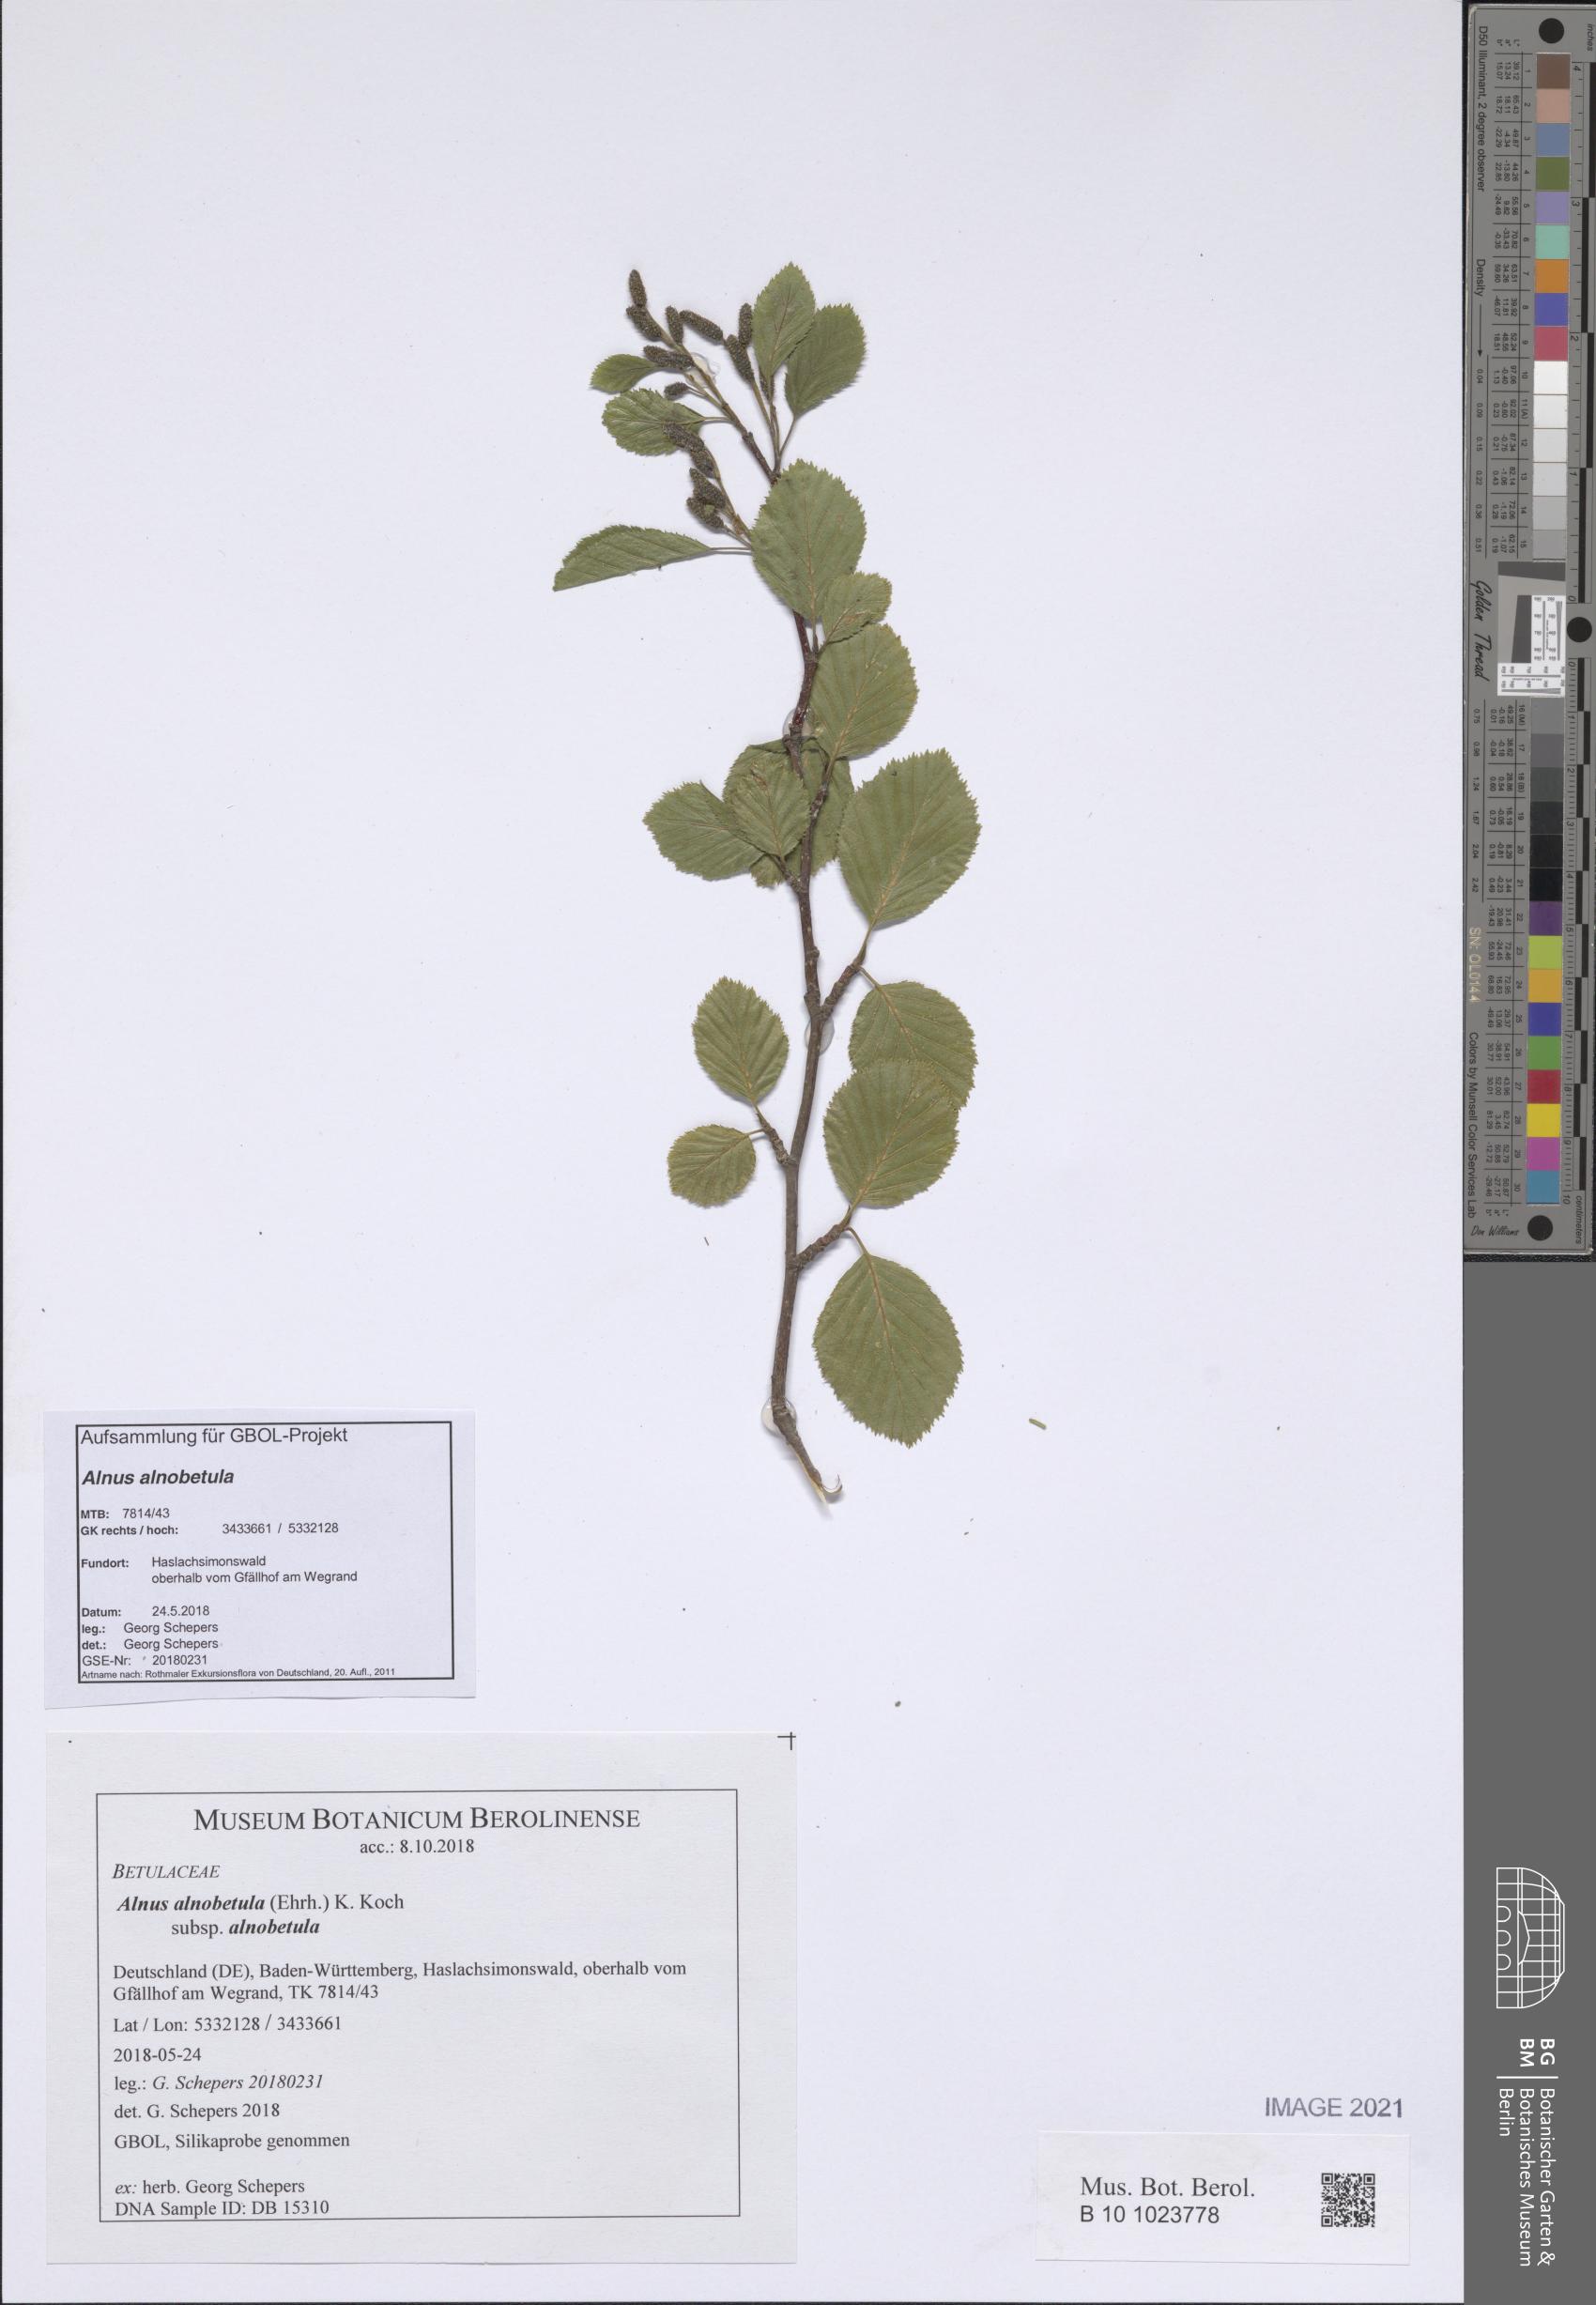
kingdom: Plantae
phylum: Tracheophyta
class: Magnoliopsida
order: Fagales
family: Betulaceae
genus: Alnus
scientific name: Alnus alnobetula
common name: Green alder
